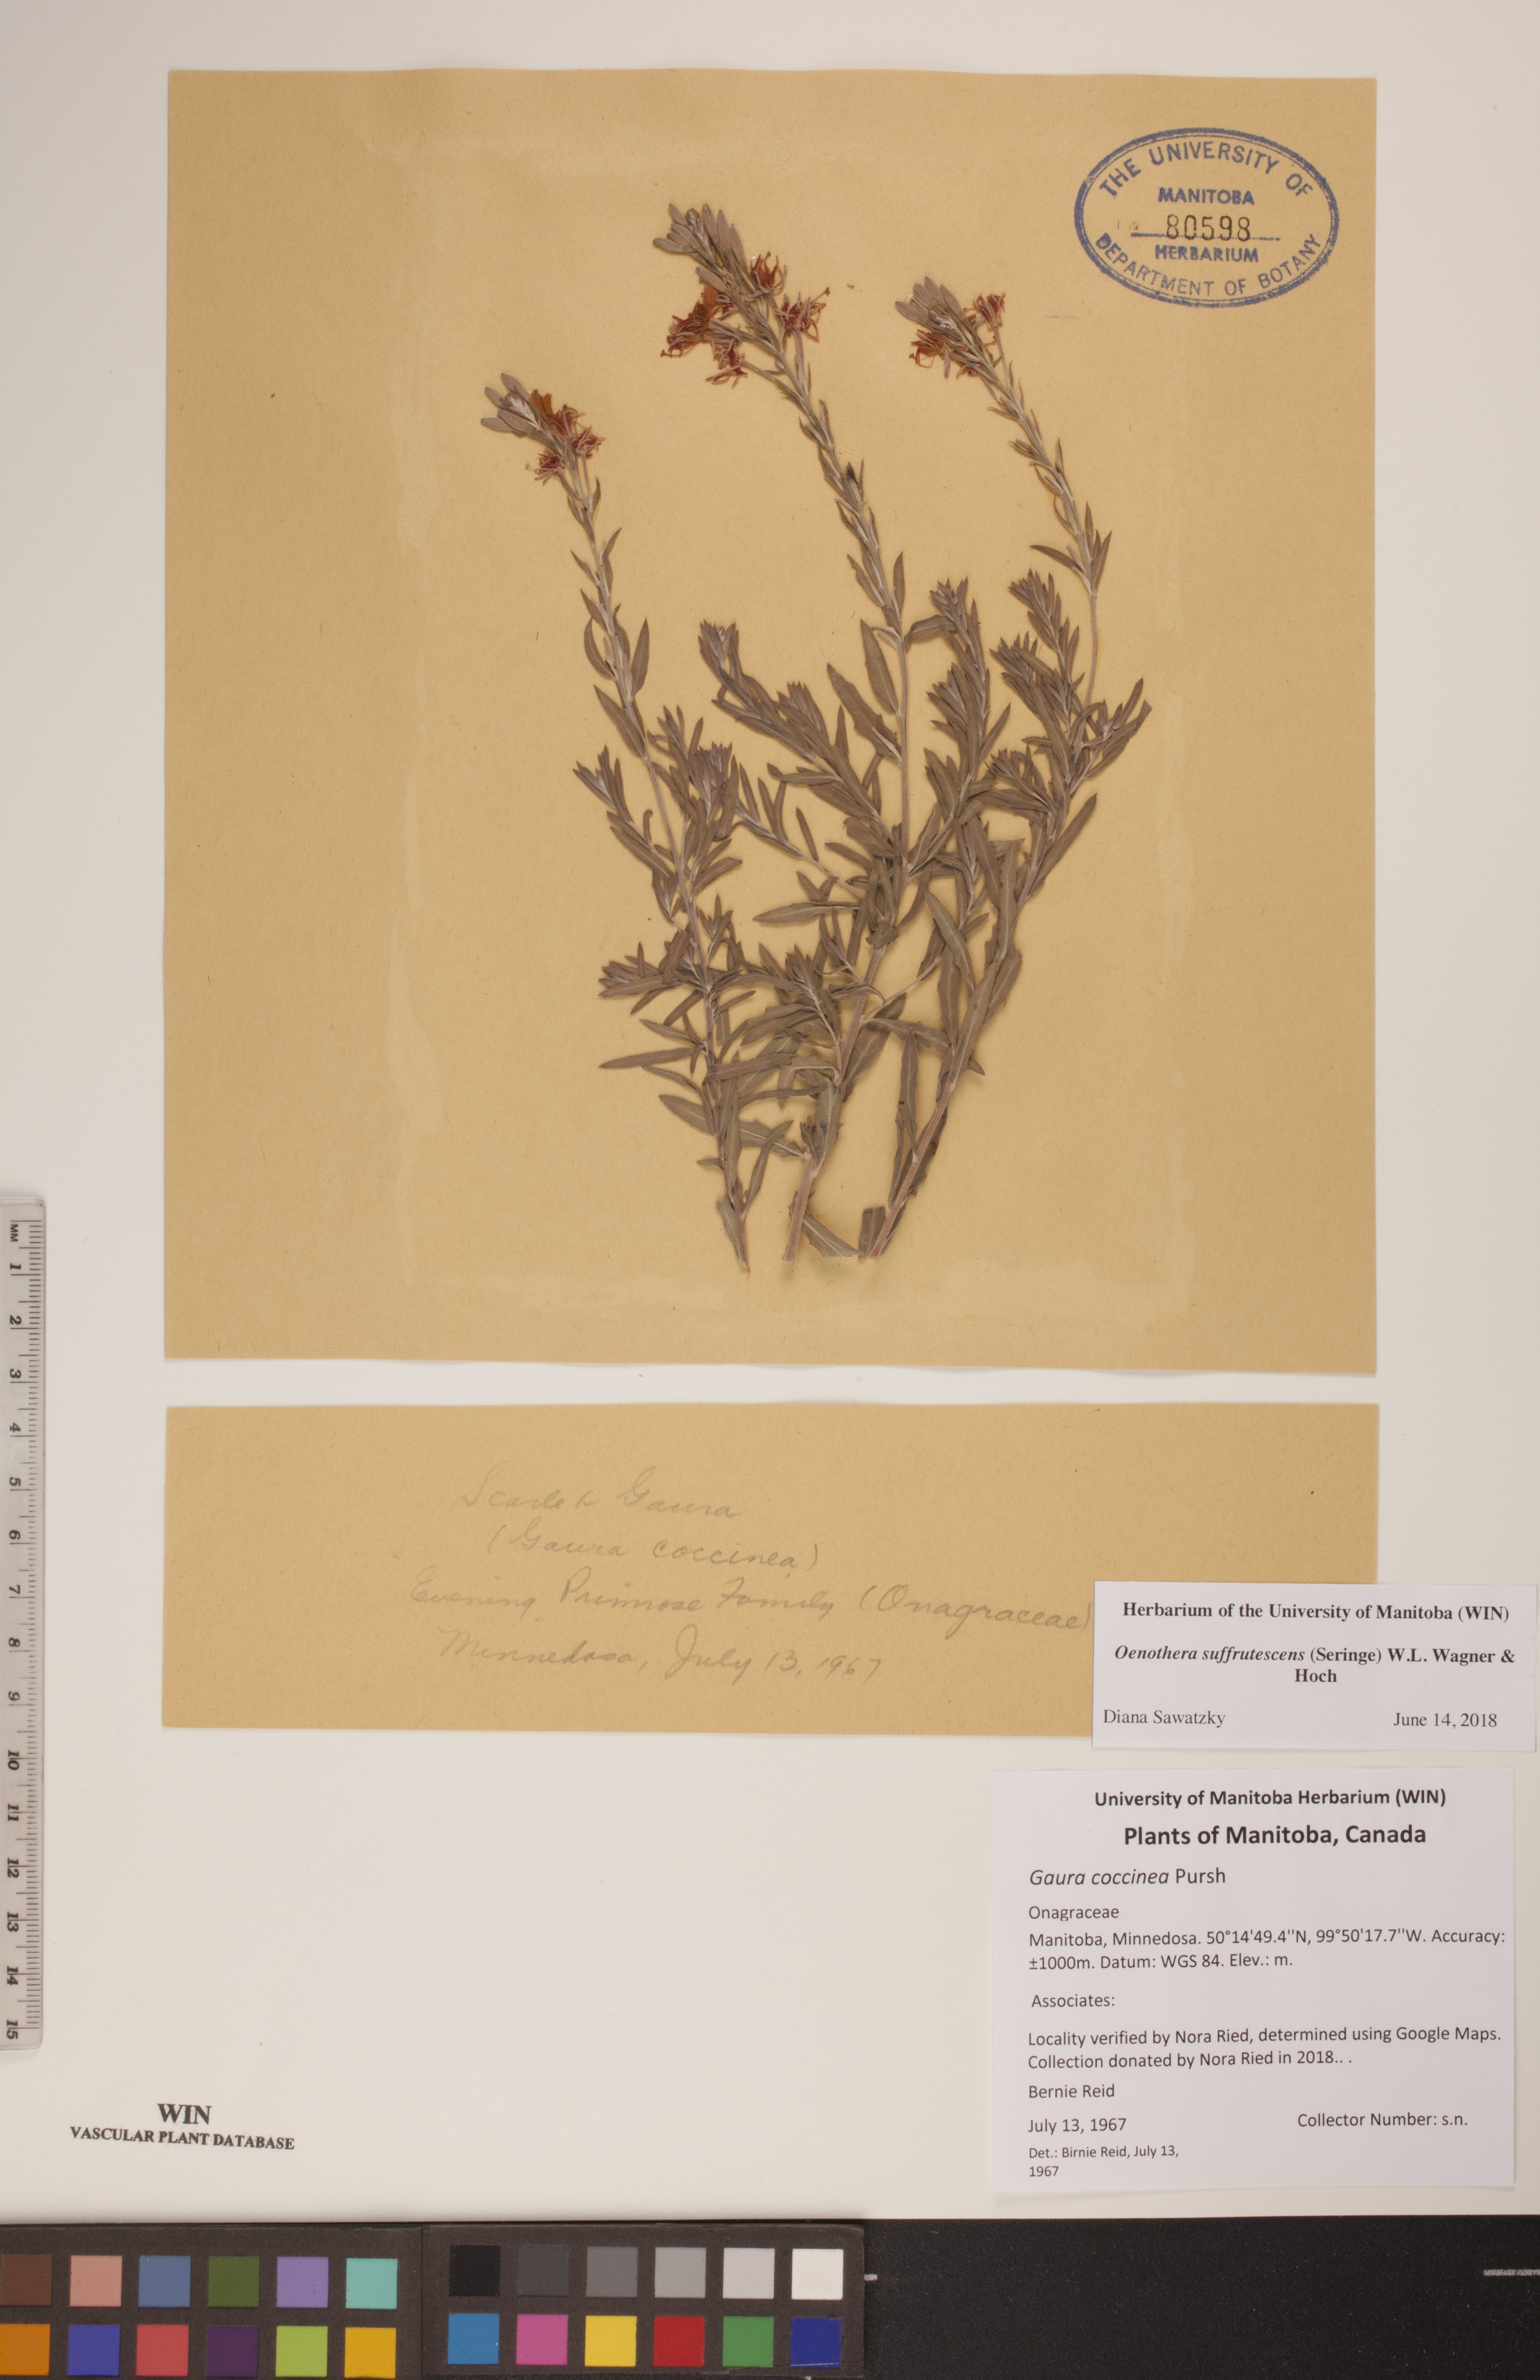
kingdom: Plantae
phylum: Tracheophyta
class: Magnoliopsida
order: Myrtales
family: Onagraceae
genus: Oenothera
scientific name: Oenothera suffrutescens
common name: Scarlet beeblossom
